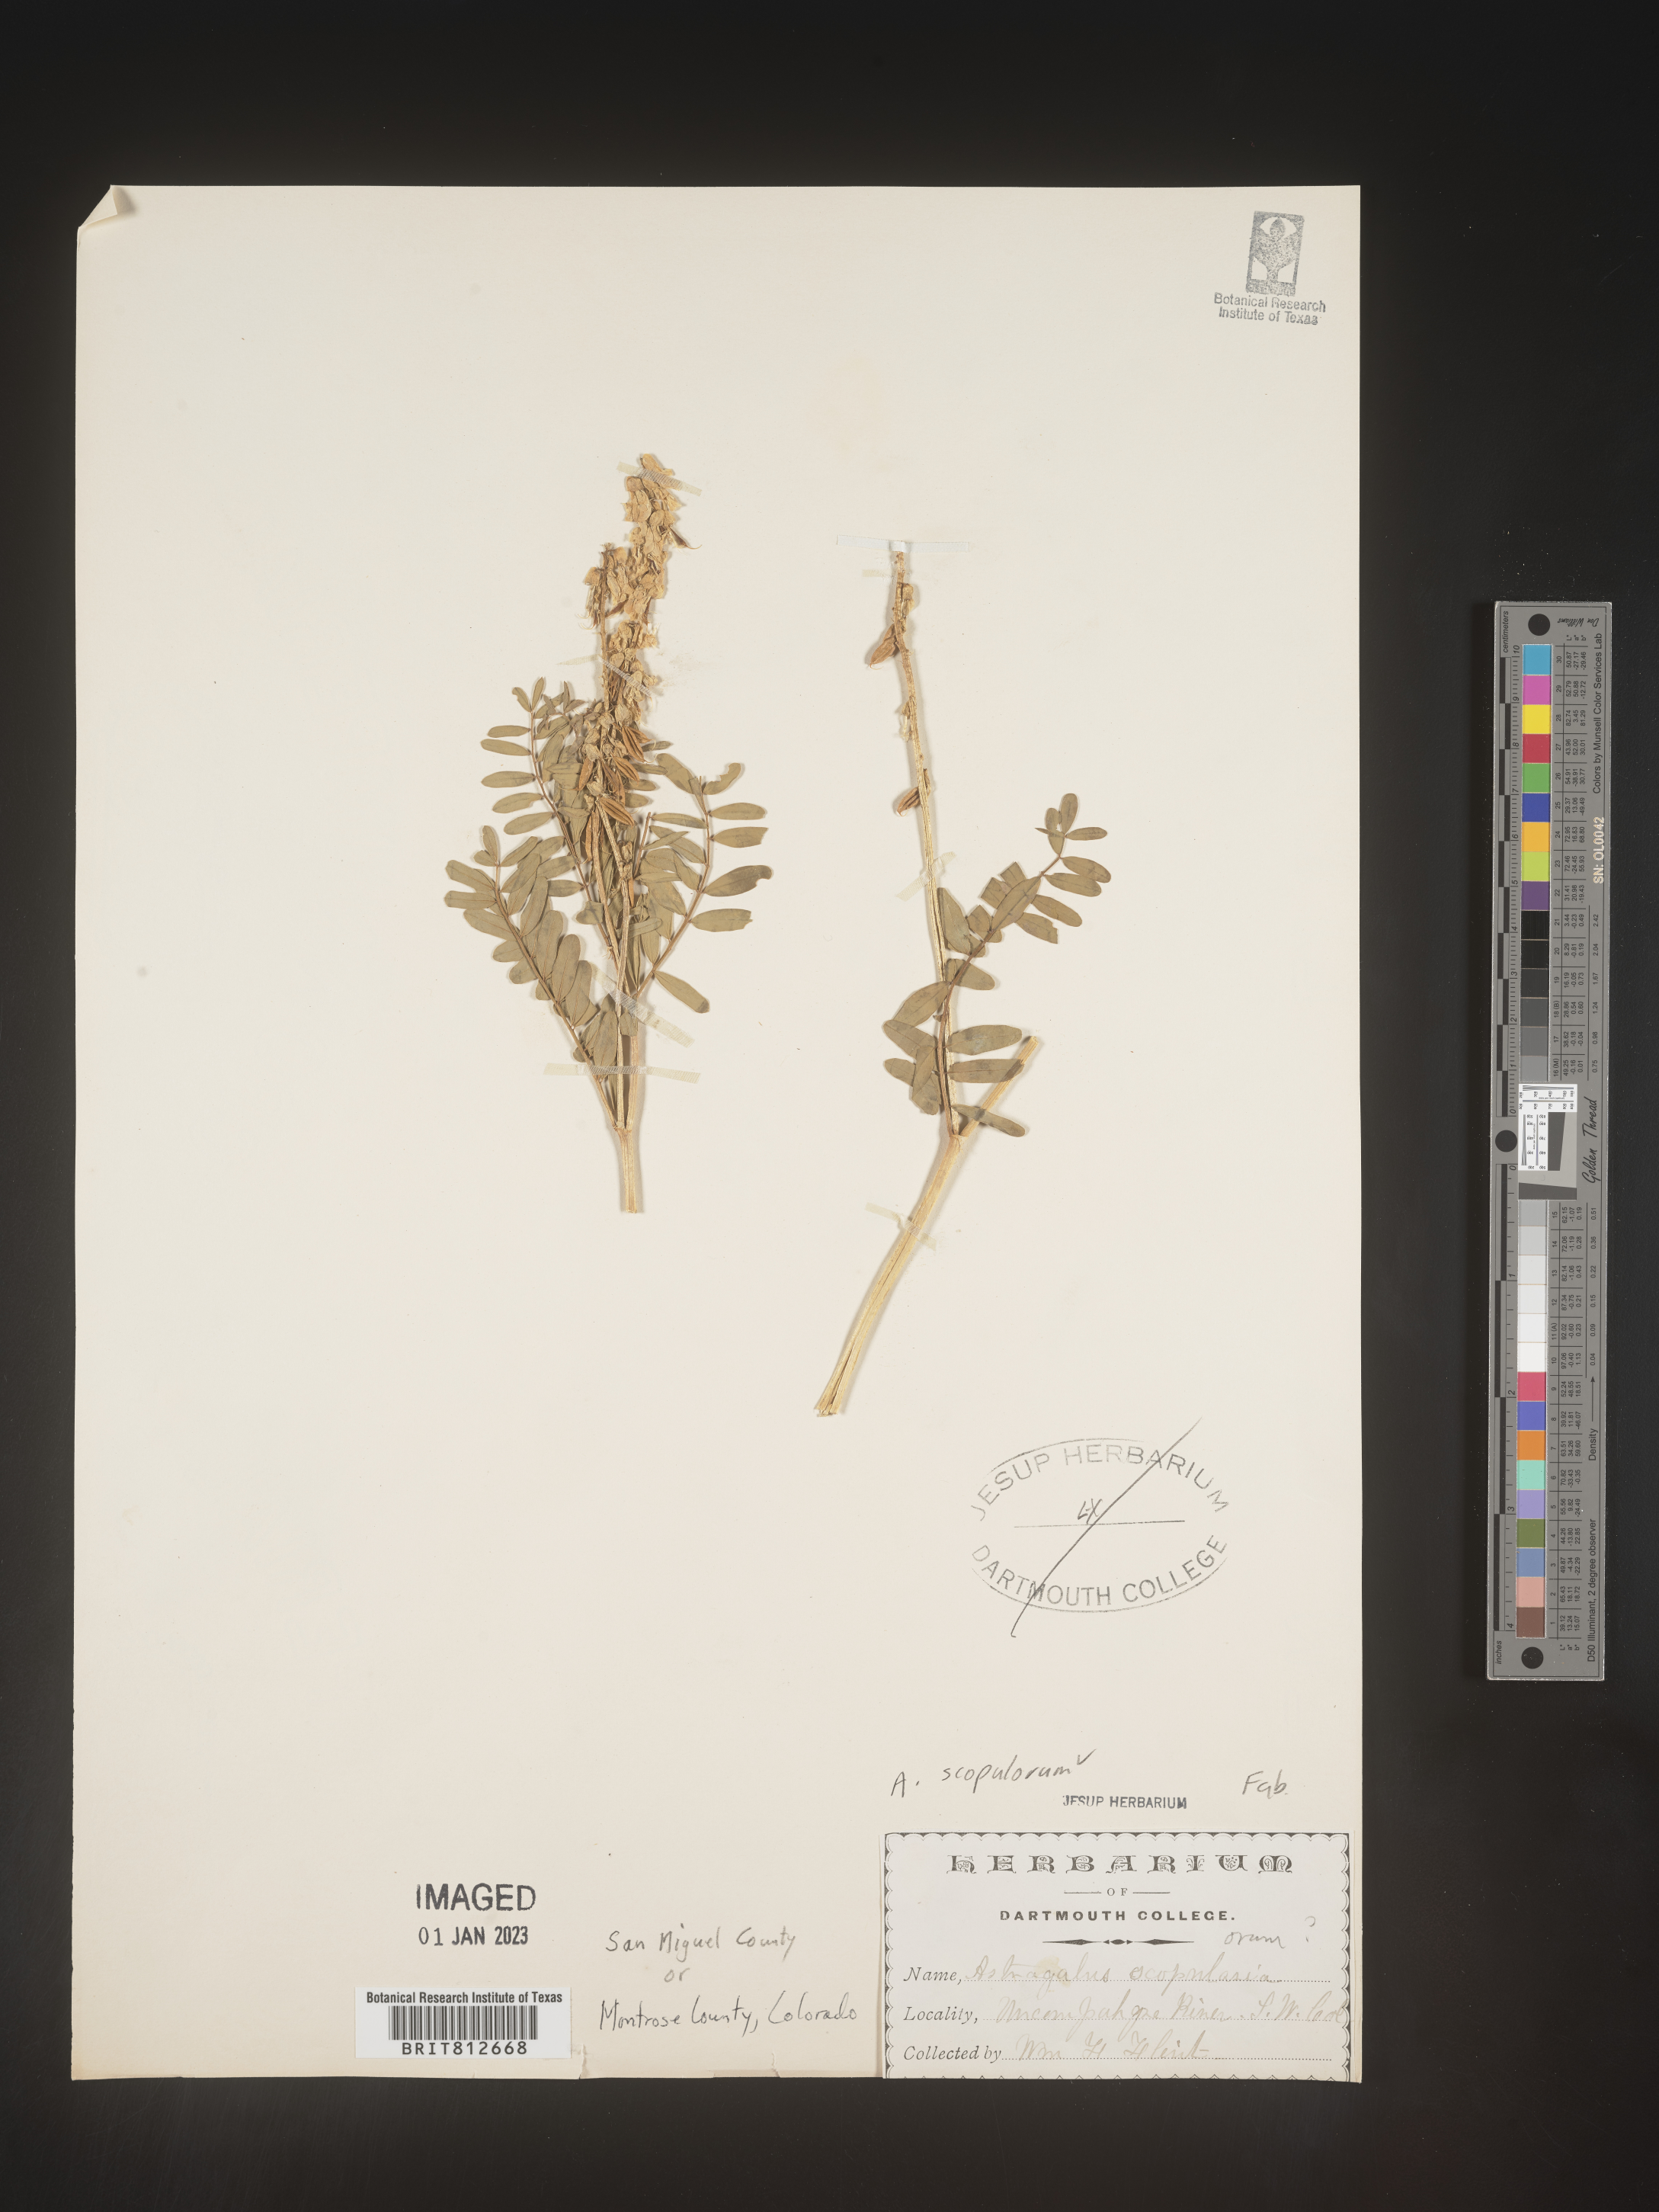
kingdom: Plantae
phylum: Tracheophyta
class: Magnoliopsida
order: Fabales
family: Fabaceae
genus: Astragalus
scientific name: Astragalus
